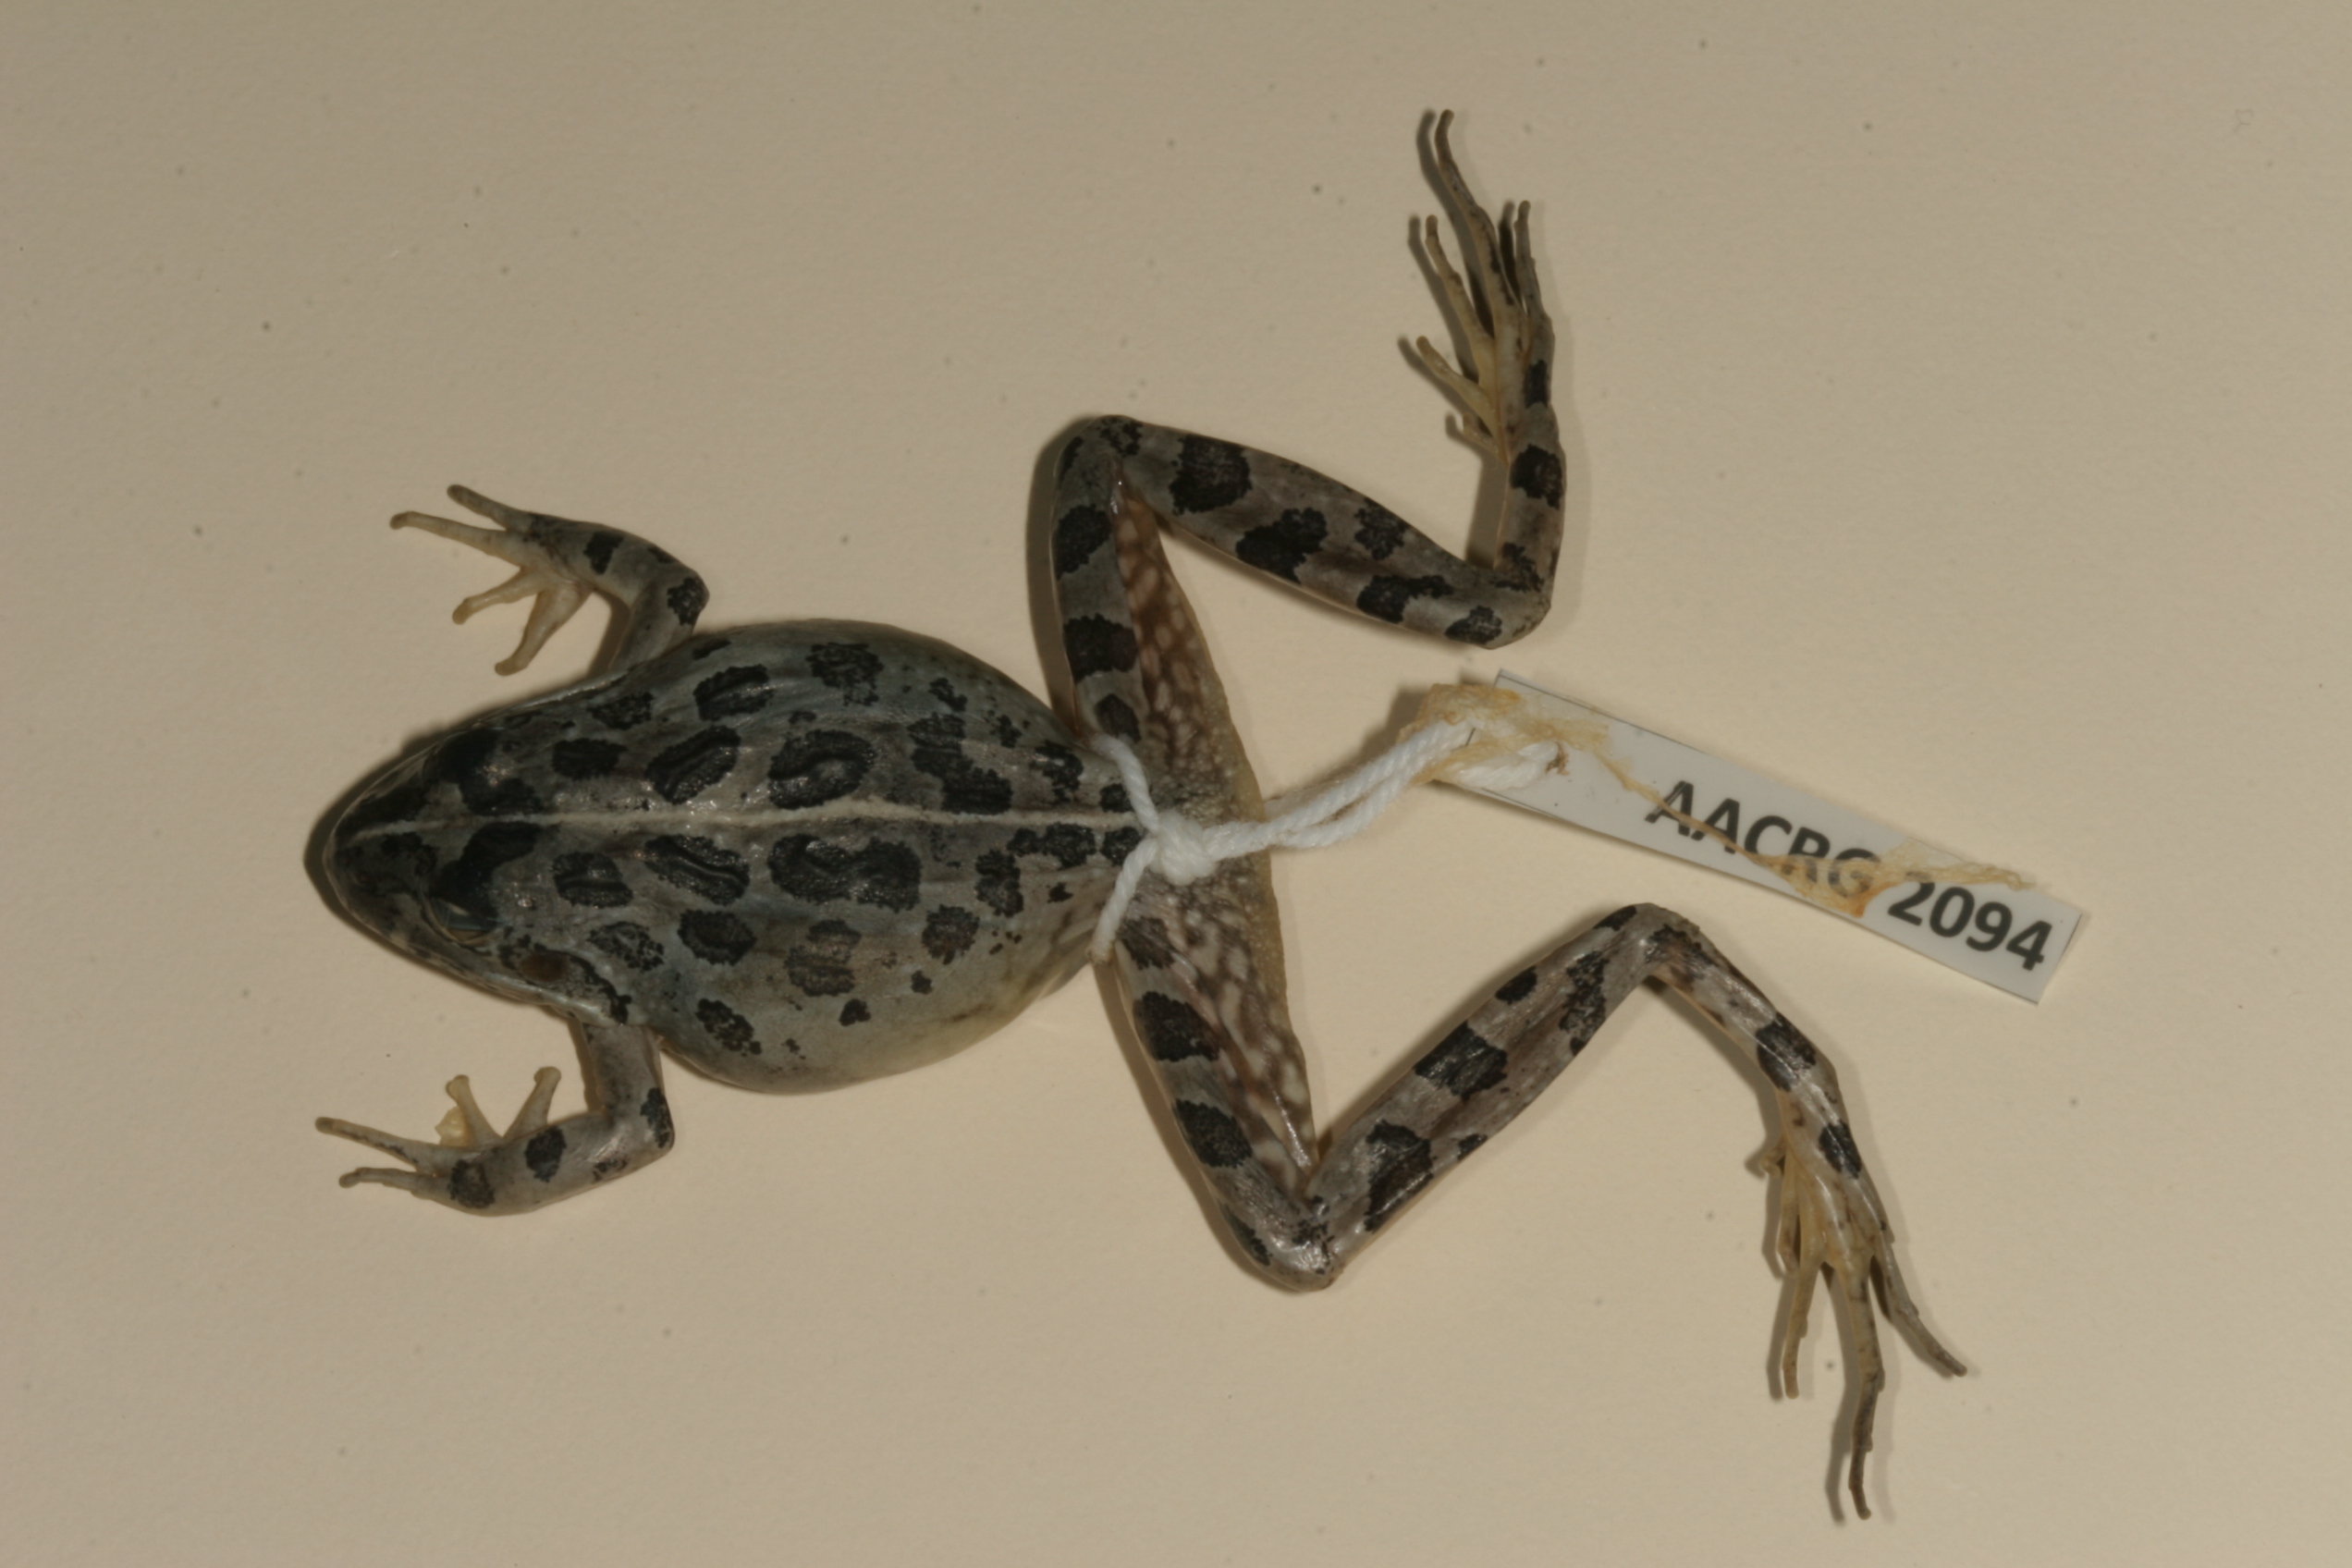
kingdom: Animalia
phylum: Chordata
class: Amphibia
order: Anura
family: Pyxicephalidae
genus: Strongylopus
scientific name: Strongylopus grayii
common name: Gray's stream frog
